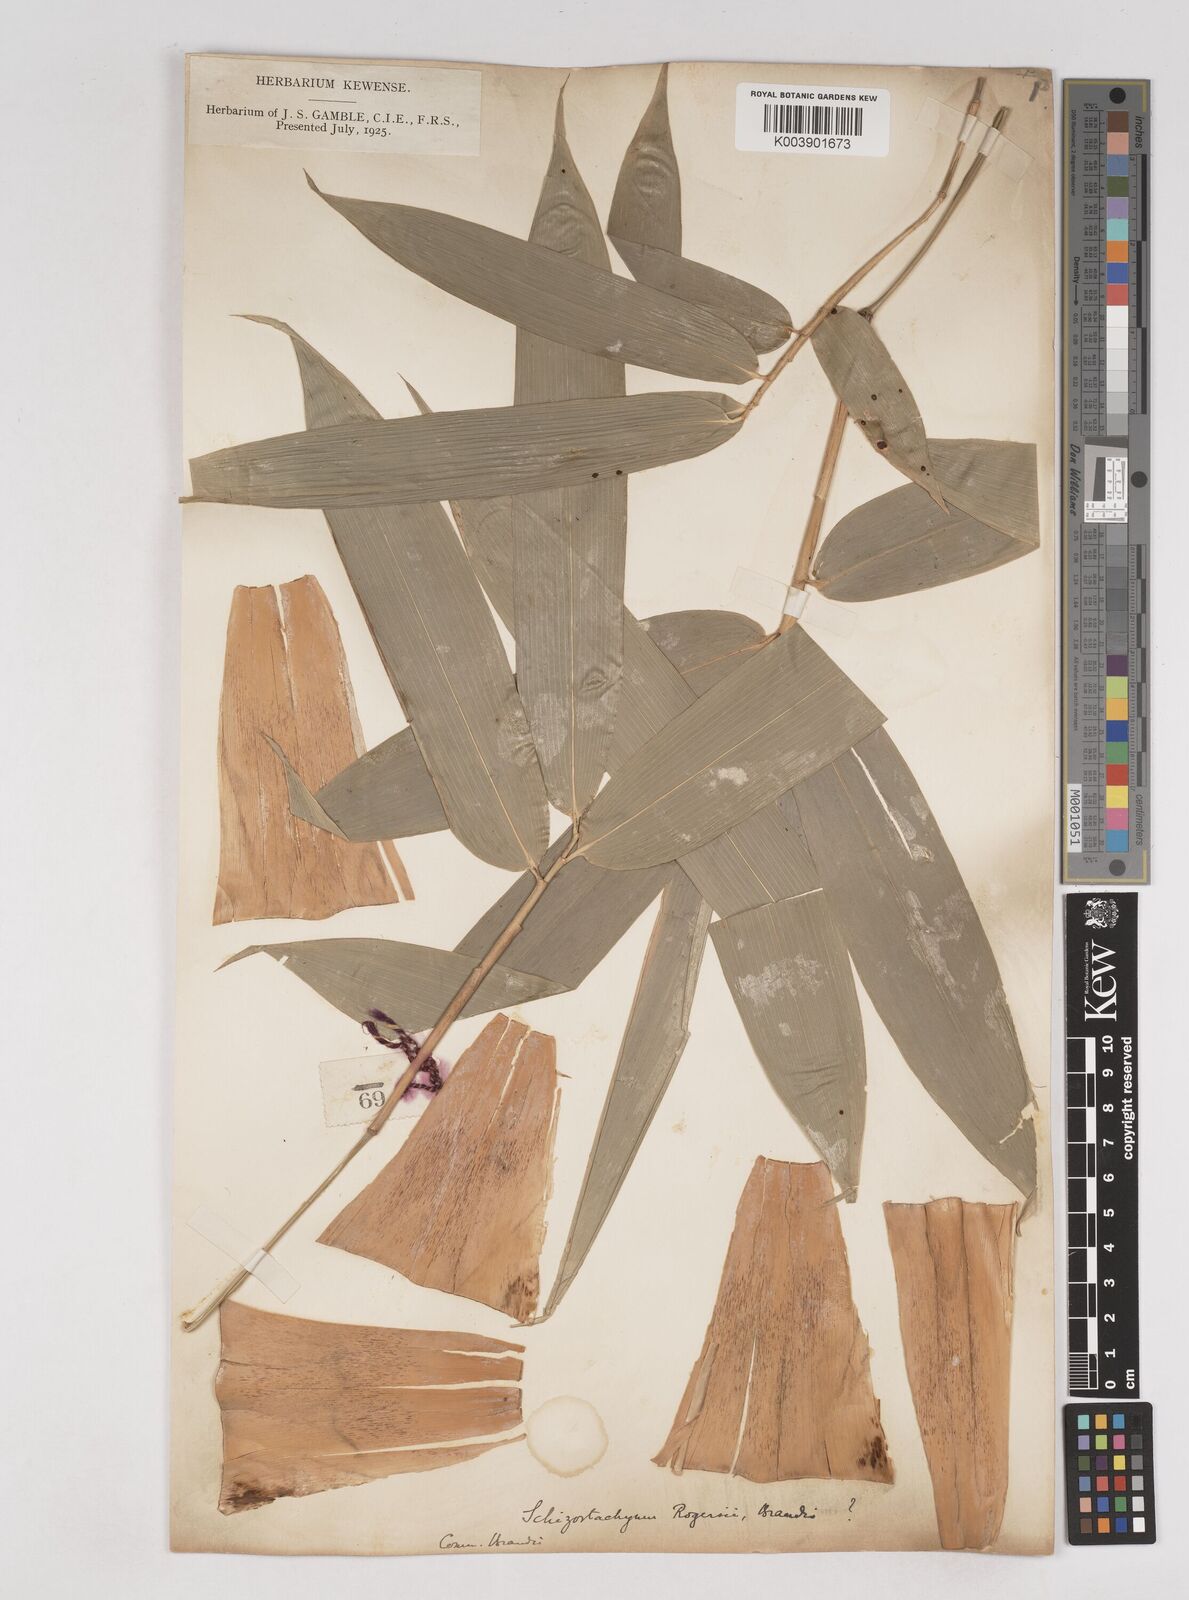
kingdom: Plantae
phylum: Tracheophyta
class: Liliopsida
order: Poales
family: Poaceae
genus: Schizostachyum
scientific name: Schizostachyum rogersii
